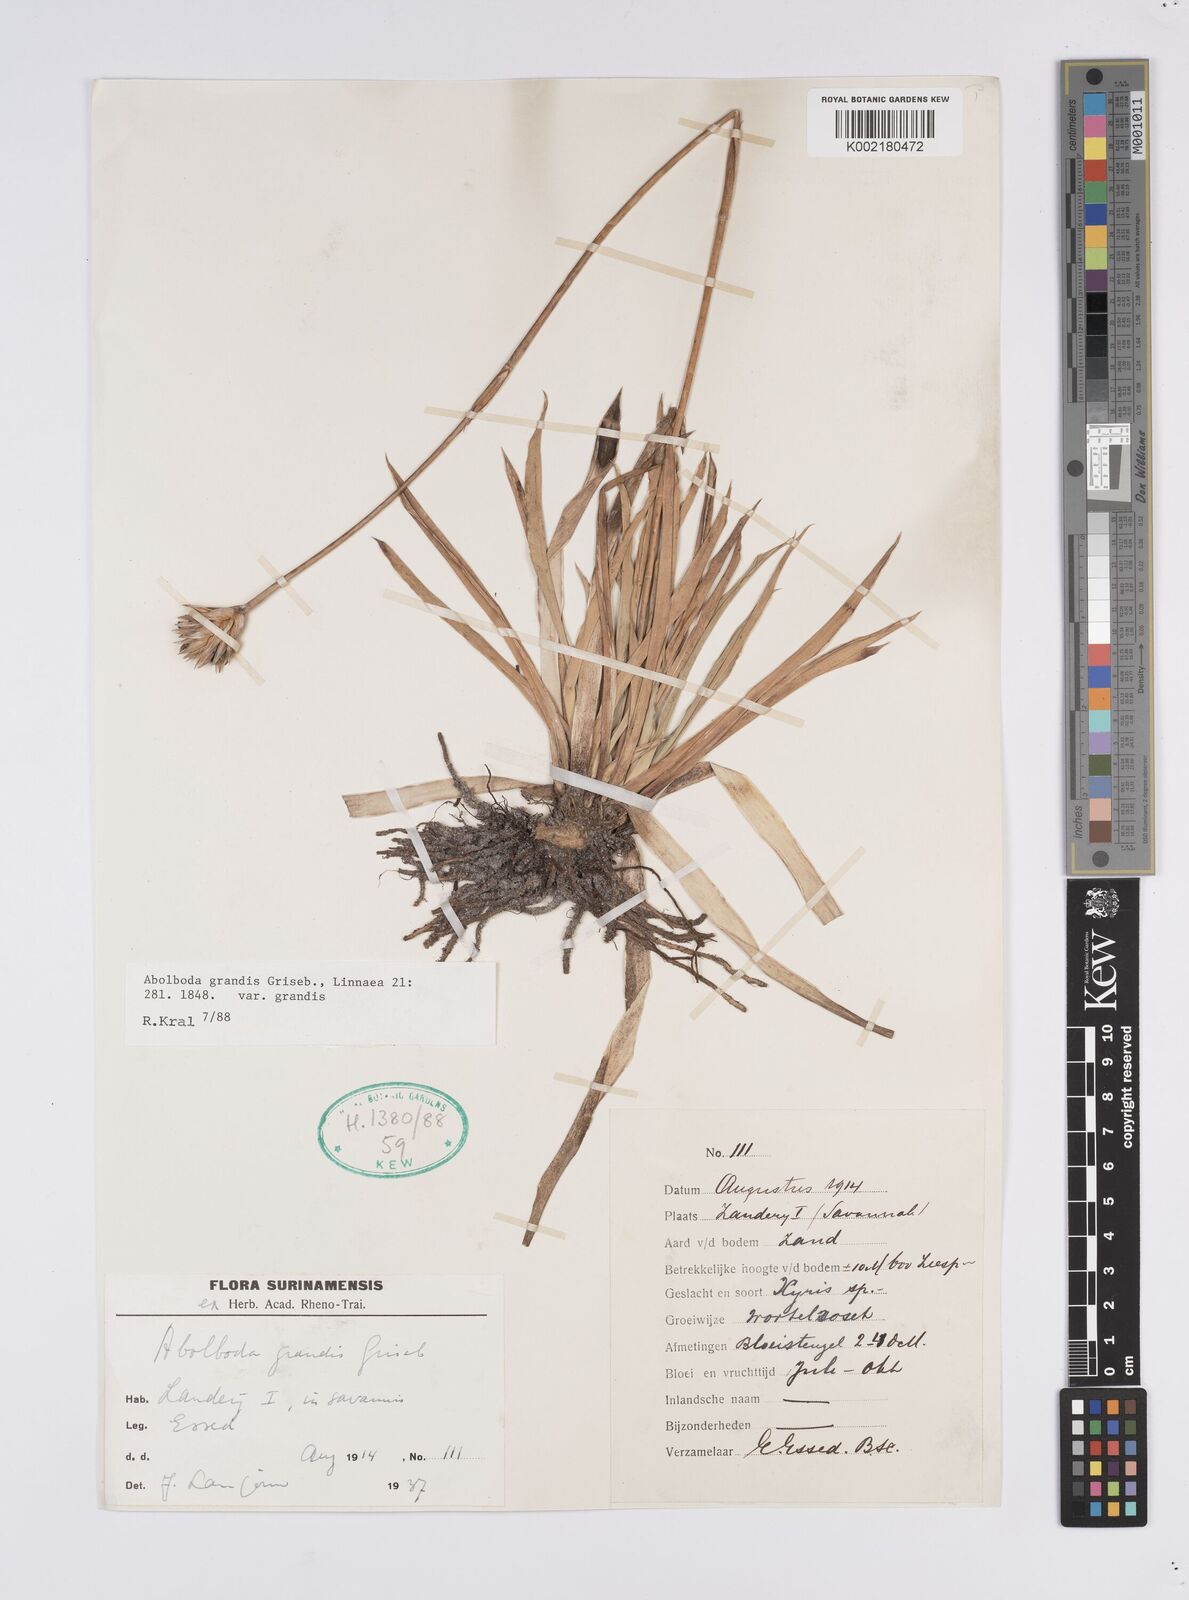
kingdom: Plantae
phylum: Tracheophyta
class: Liliopsida
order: Poales
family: Xyridaceae
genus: Abolboda
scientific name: Abolboda grandis
